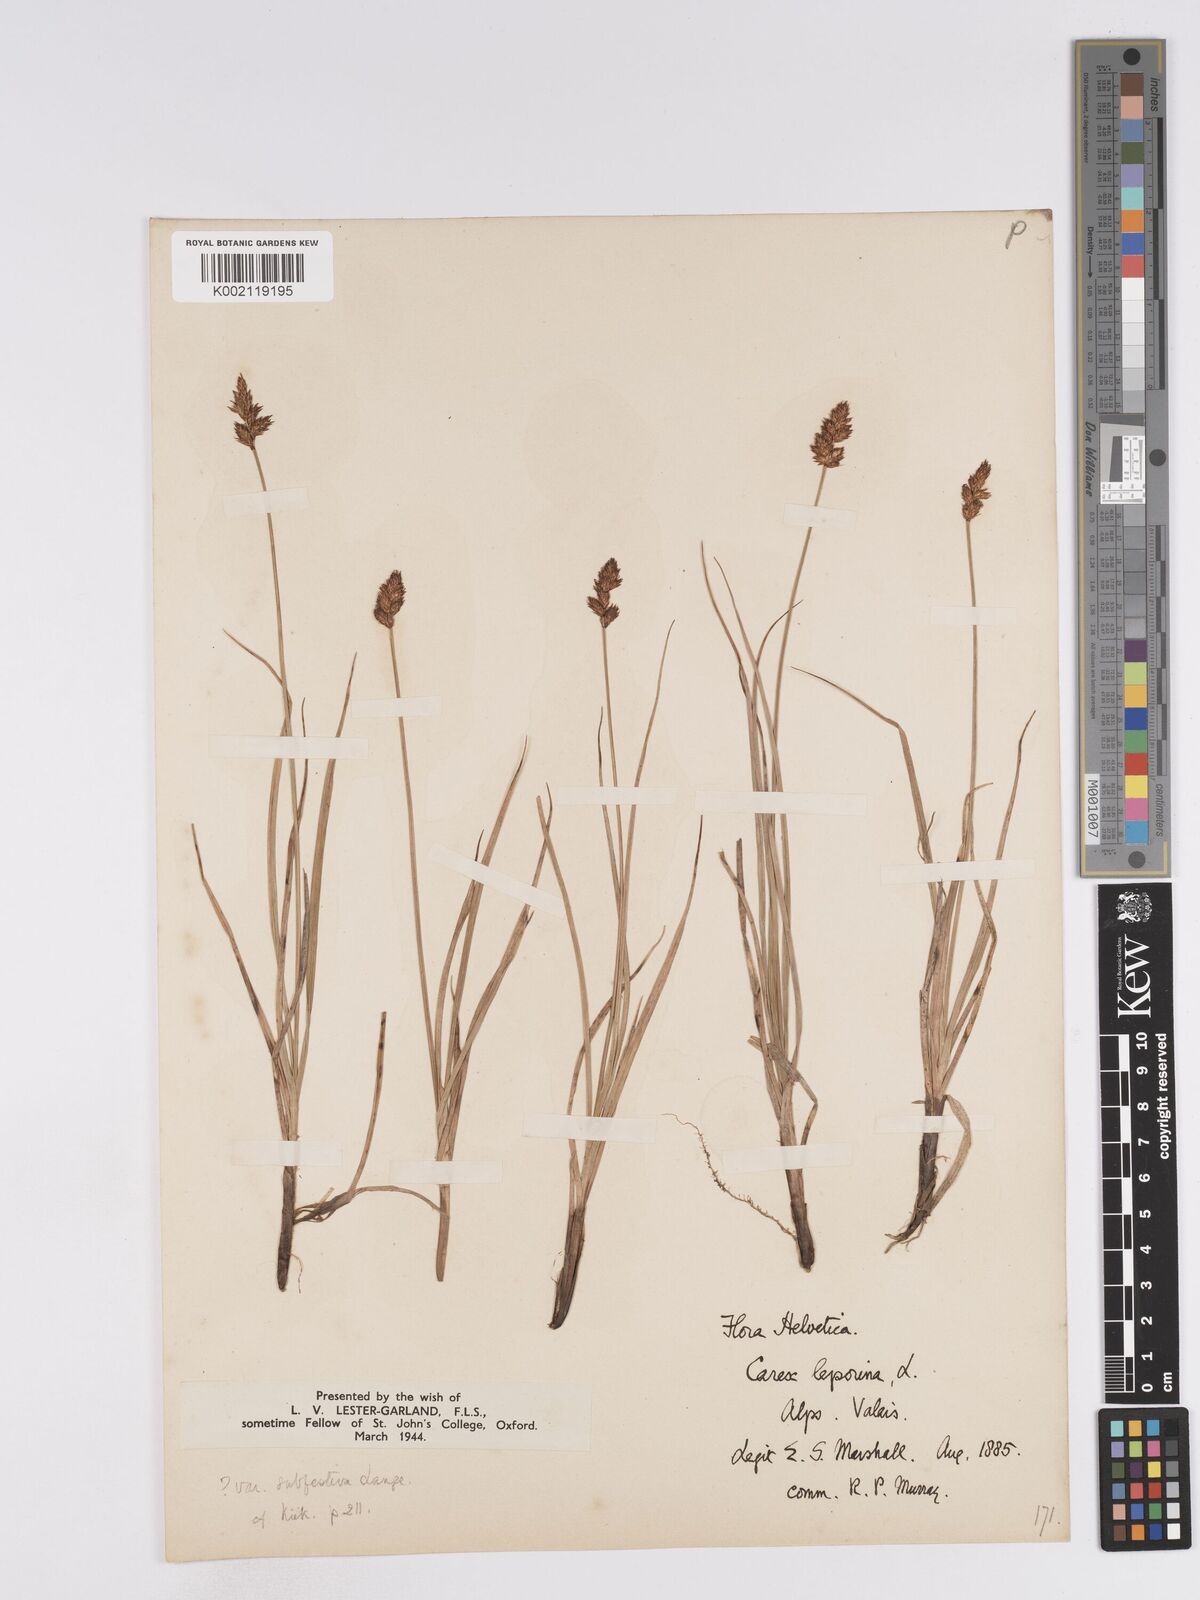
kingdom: Plantae
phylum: Tracheophyta
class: Liliopsida
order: Poales
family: Cyperaceae
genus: Carex
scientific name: Carex leporina
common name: Oval sedge
